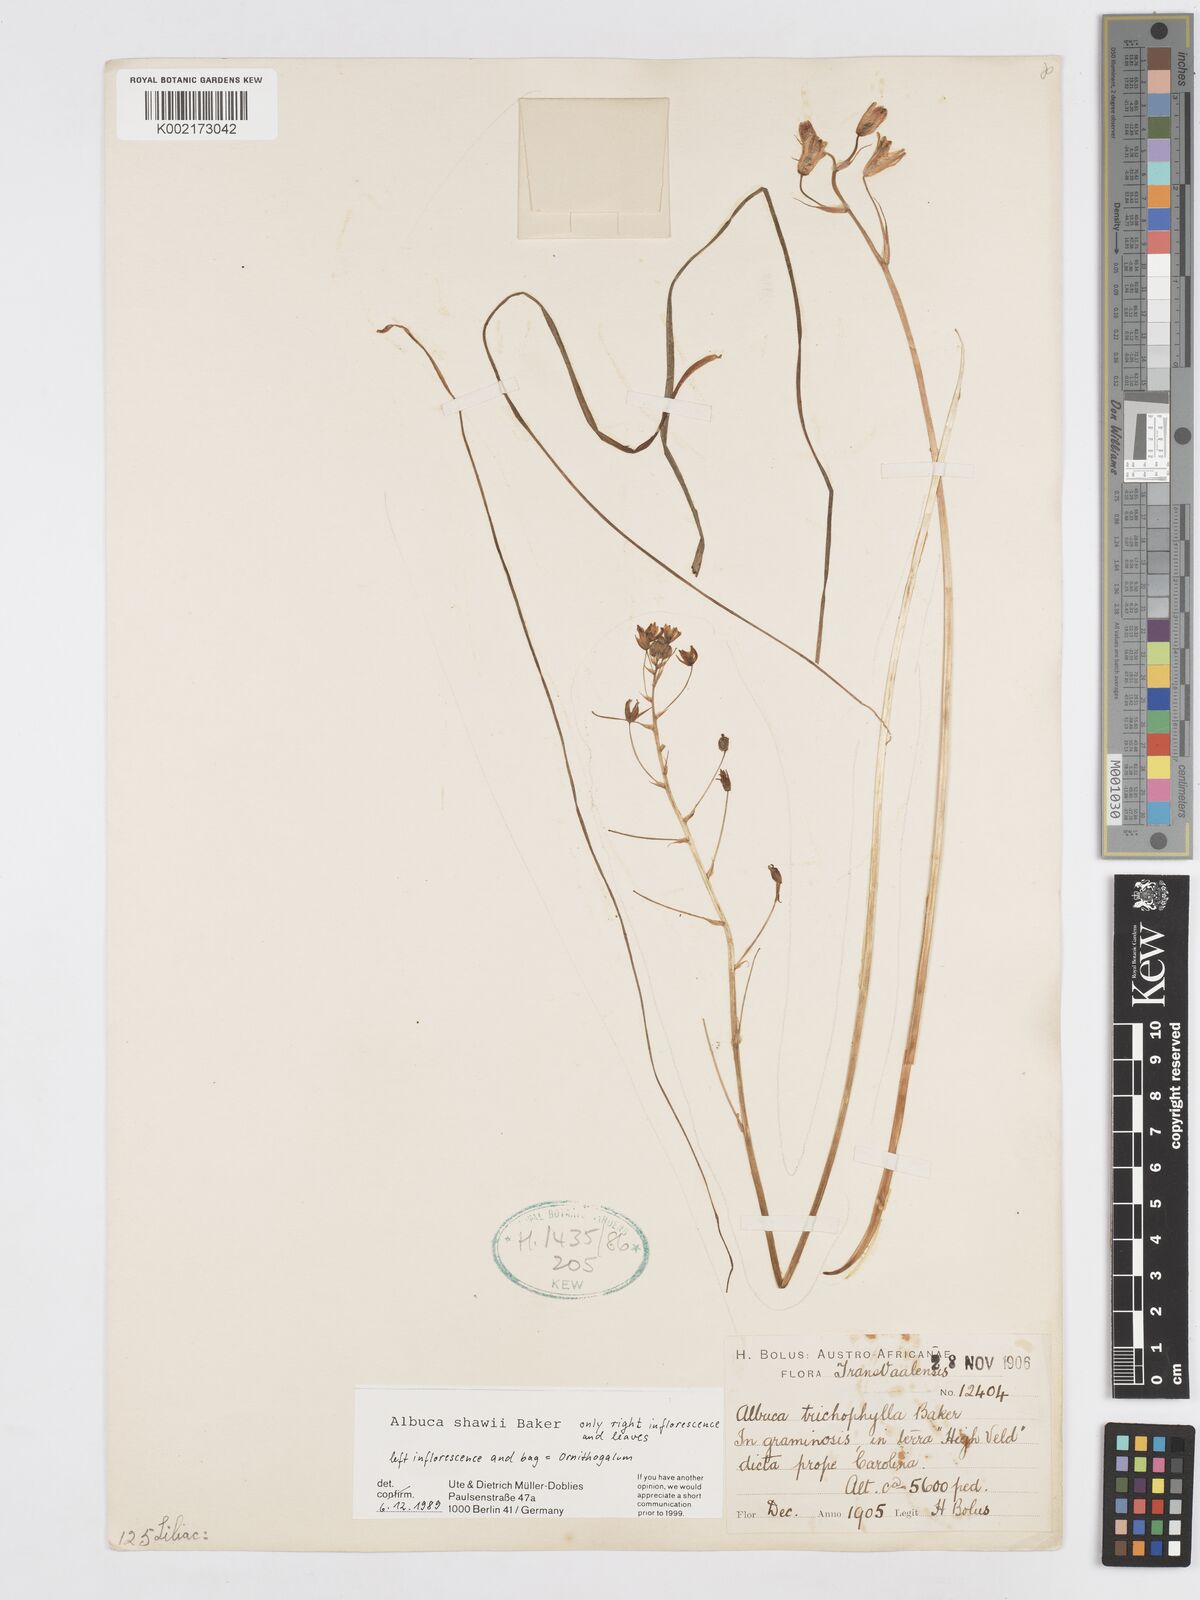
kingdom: Plantae
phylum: Tracheophyta
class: Liliopsida
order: Asparagales
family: Asparagaceae
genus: Albuca
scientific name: Albuca shawii
